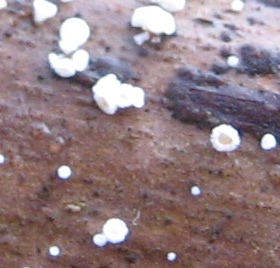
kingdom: Fungi
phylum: Ascomycota
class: Leotiomycetes
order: Helotiales
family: Lachnaceae
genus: Lachnum
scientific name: Lachnum
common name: frynseskive
